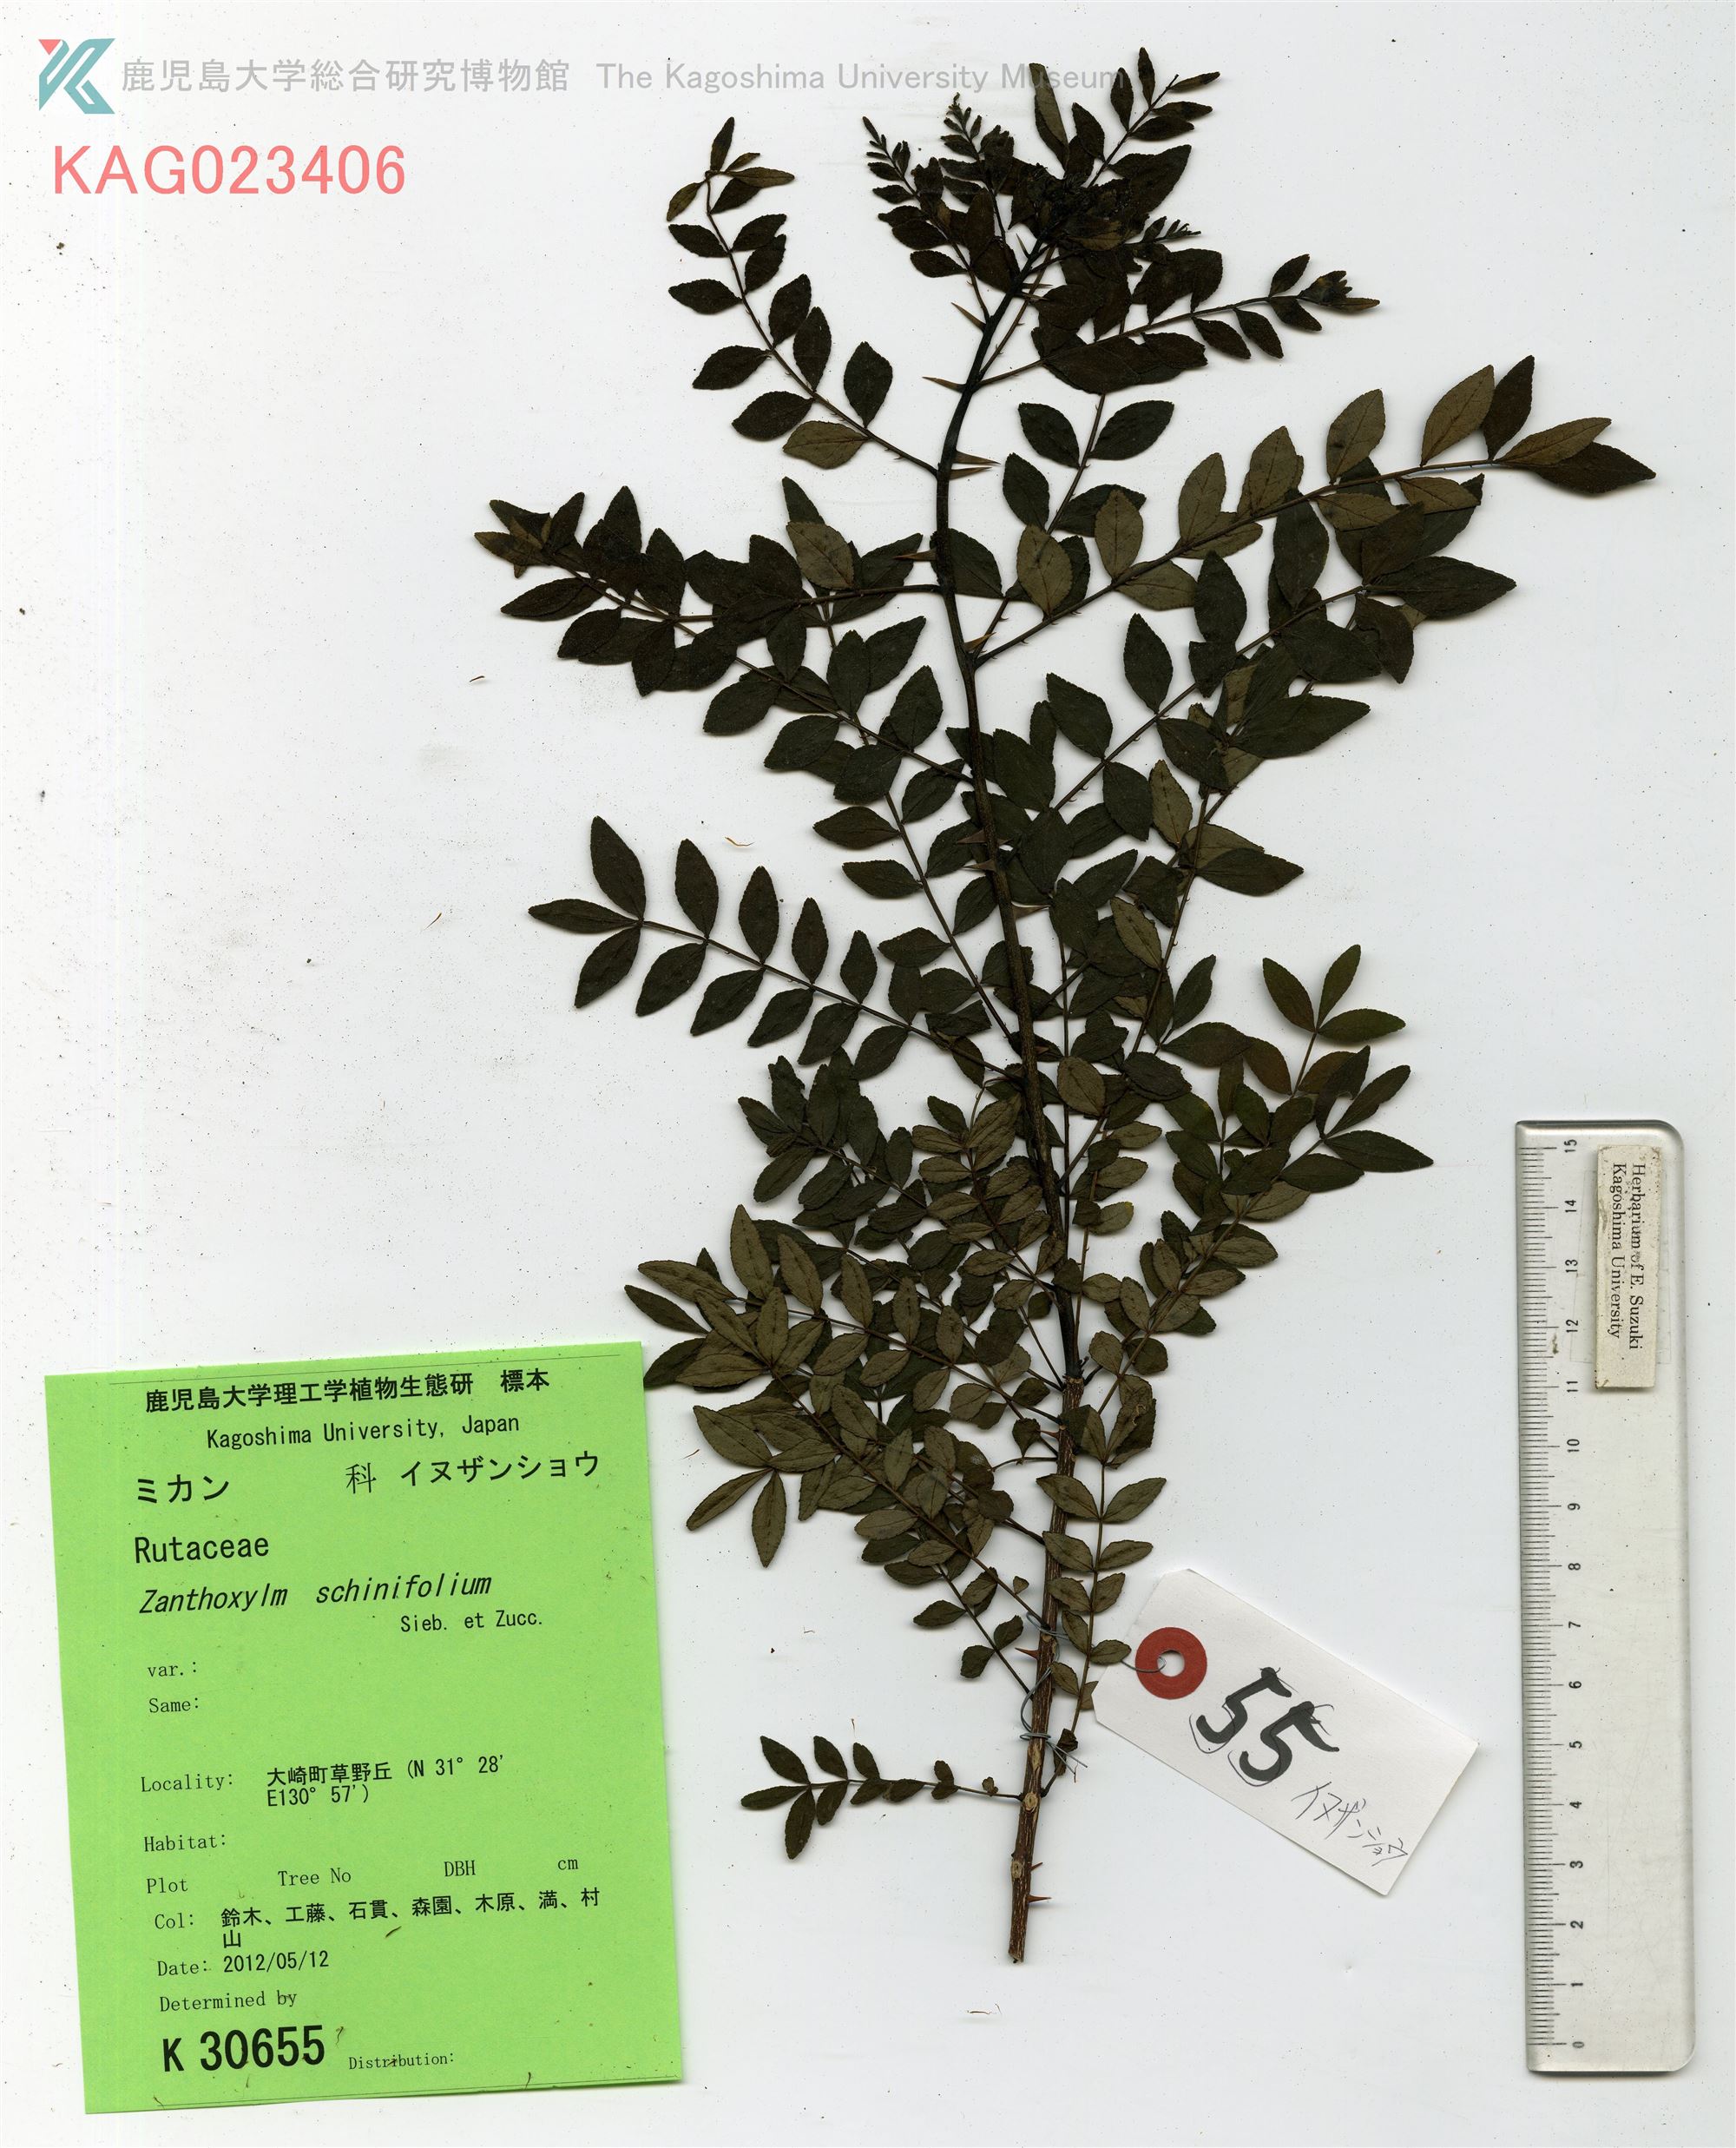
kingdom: Plantae
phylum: Tracheophyta
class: Magnoliopsida
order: Sapindales
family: Rutaceae
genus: Zanthoxylum
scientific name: Zanthoxylum schinifolium
